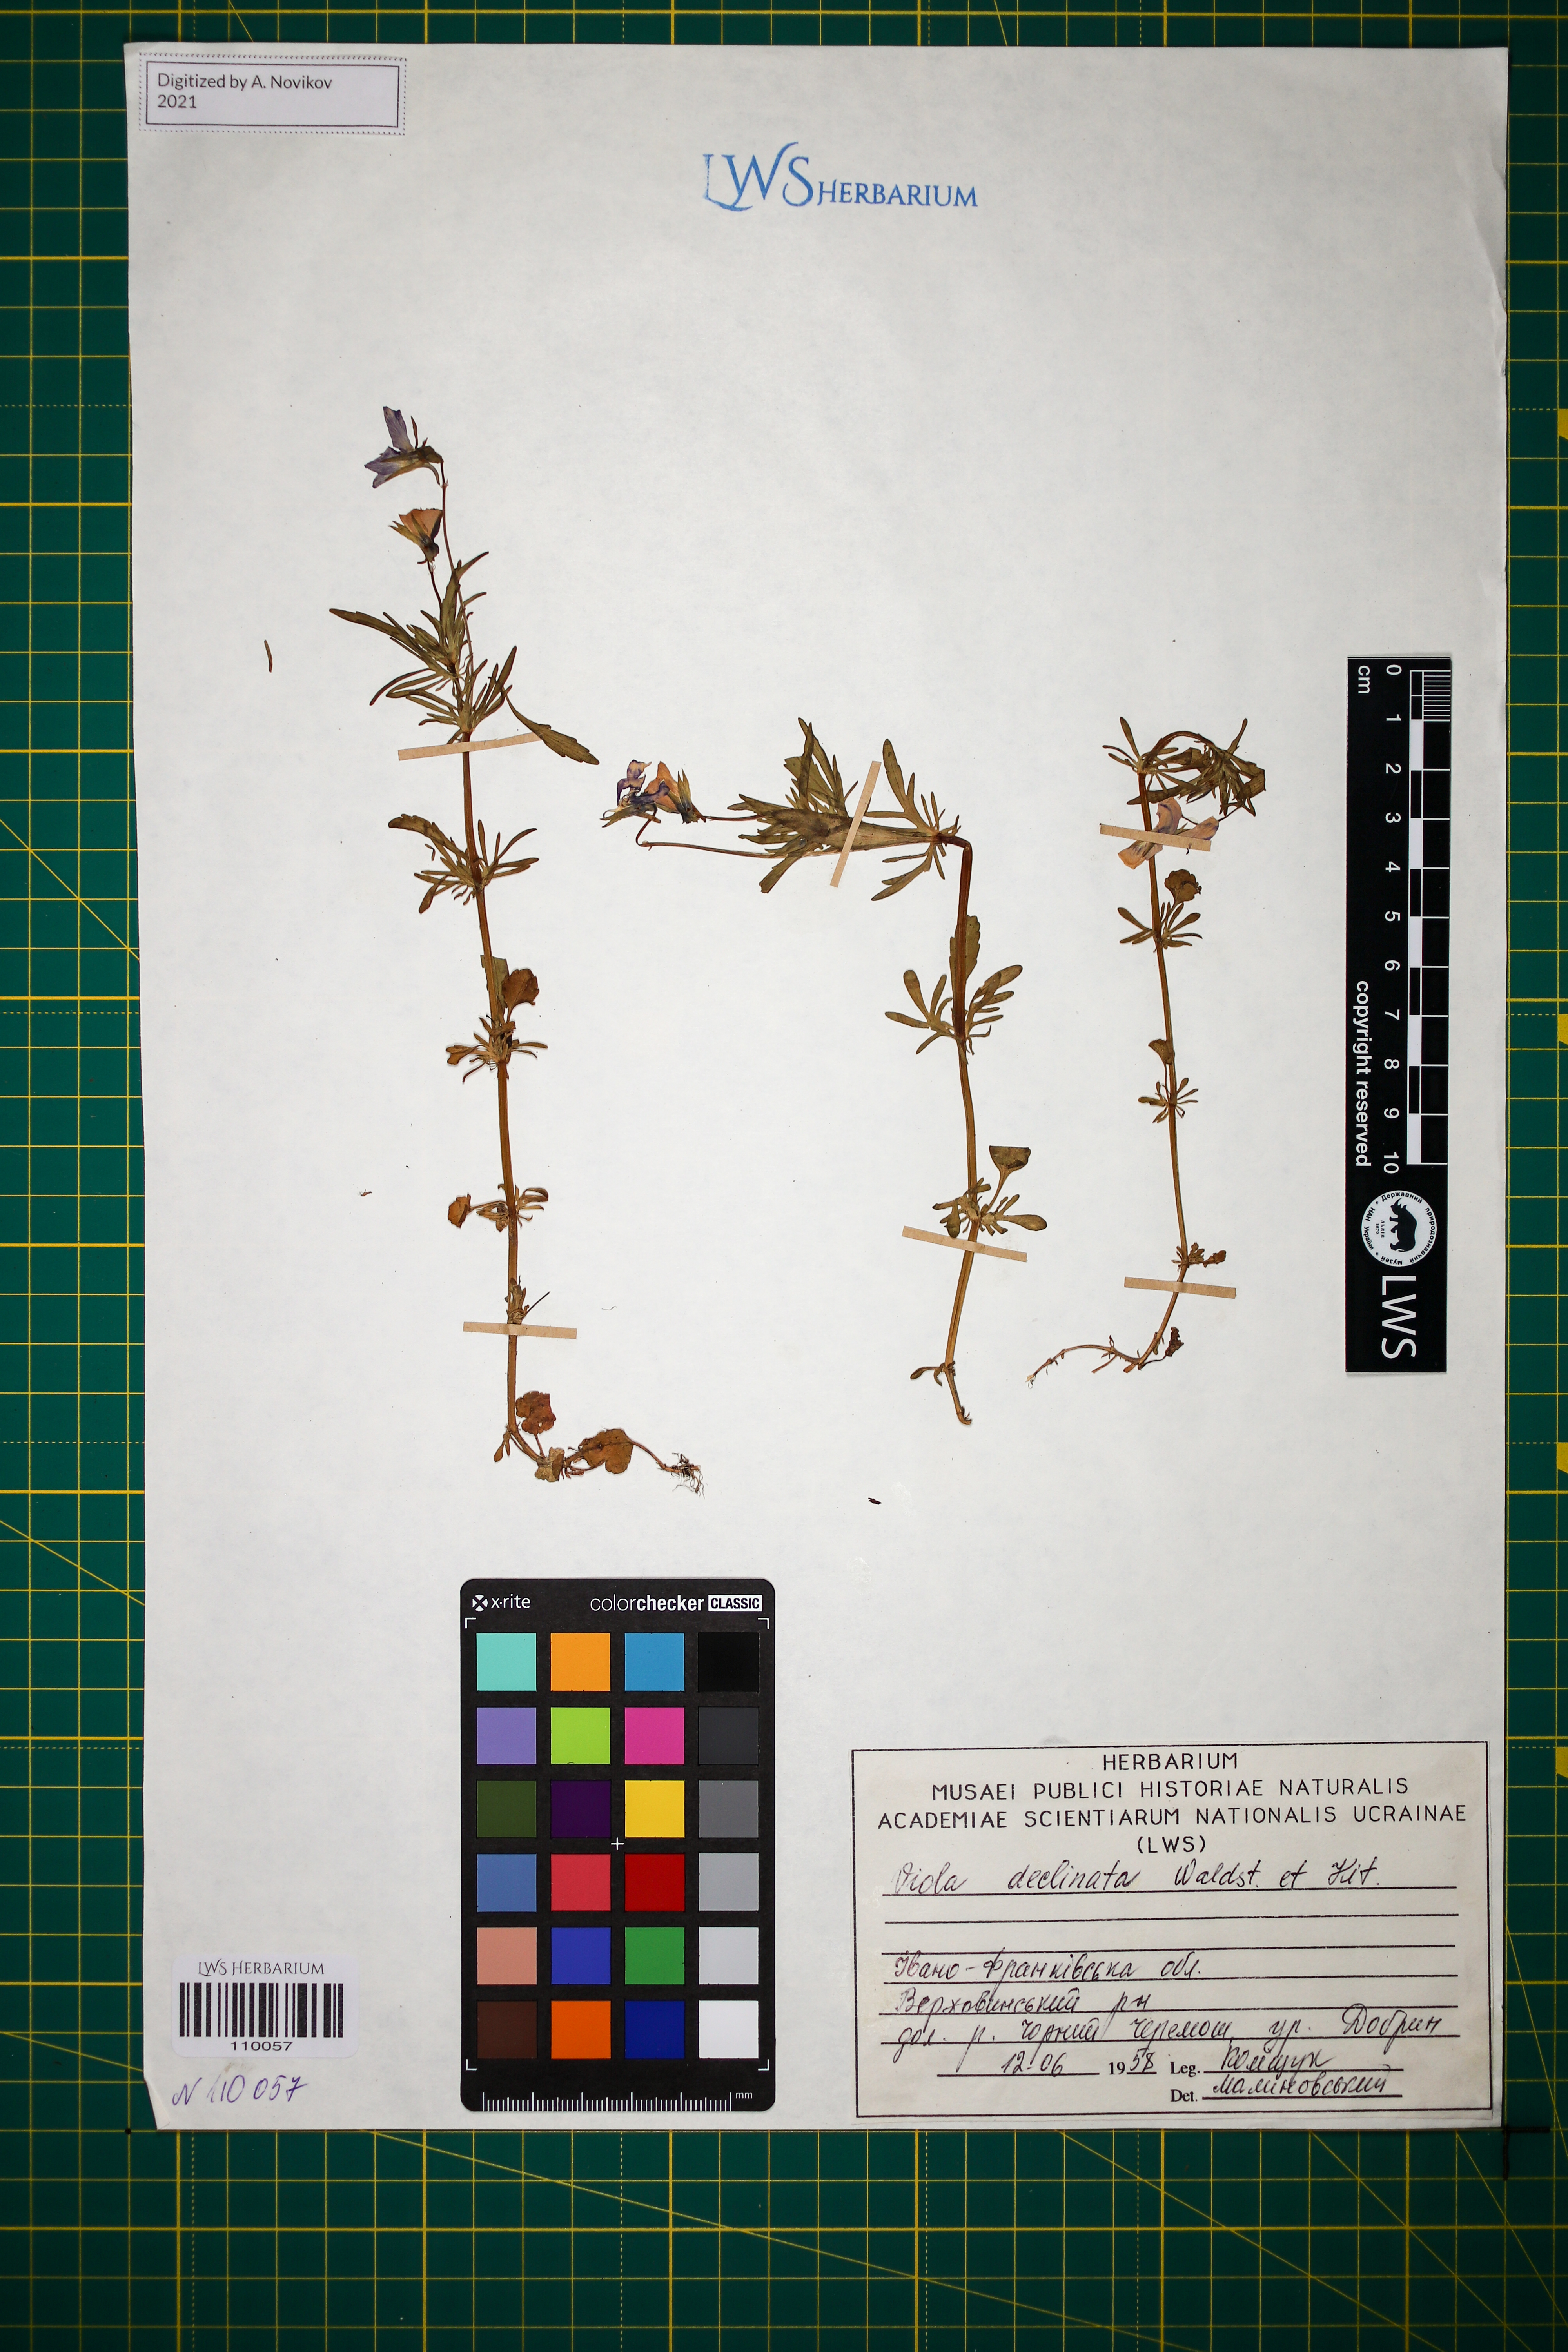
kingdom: Plantae
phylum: Tracheophyta
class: Magnoliopsida
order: Malpighiales
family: Violaceae
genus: Viola
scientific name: Viola declinata
